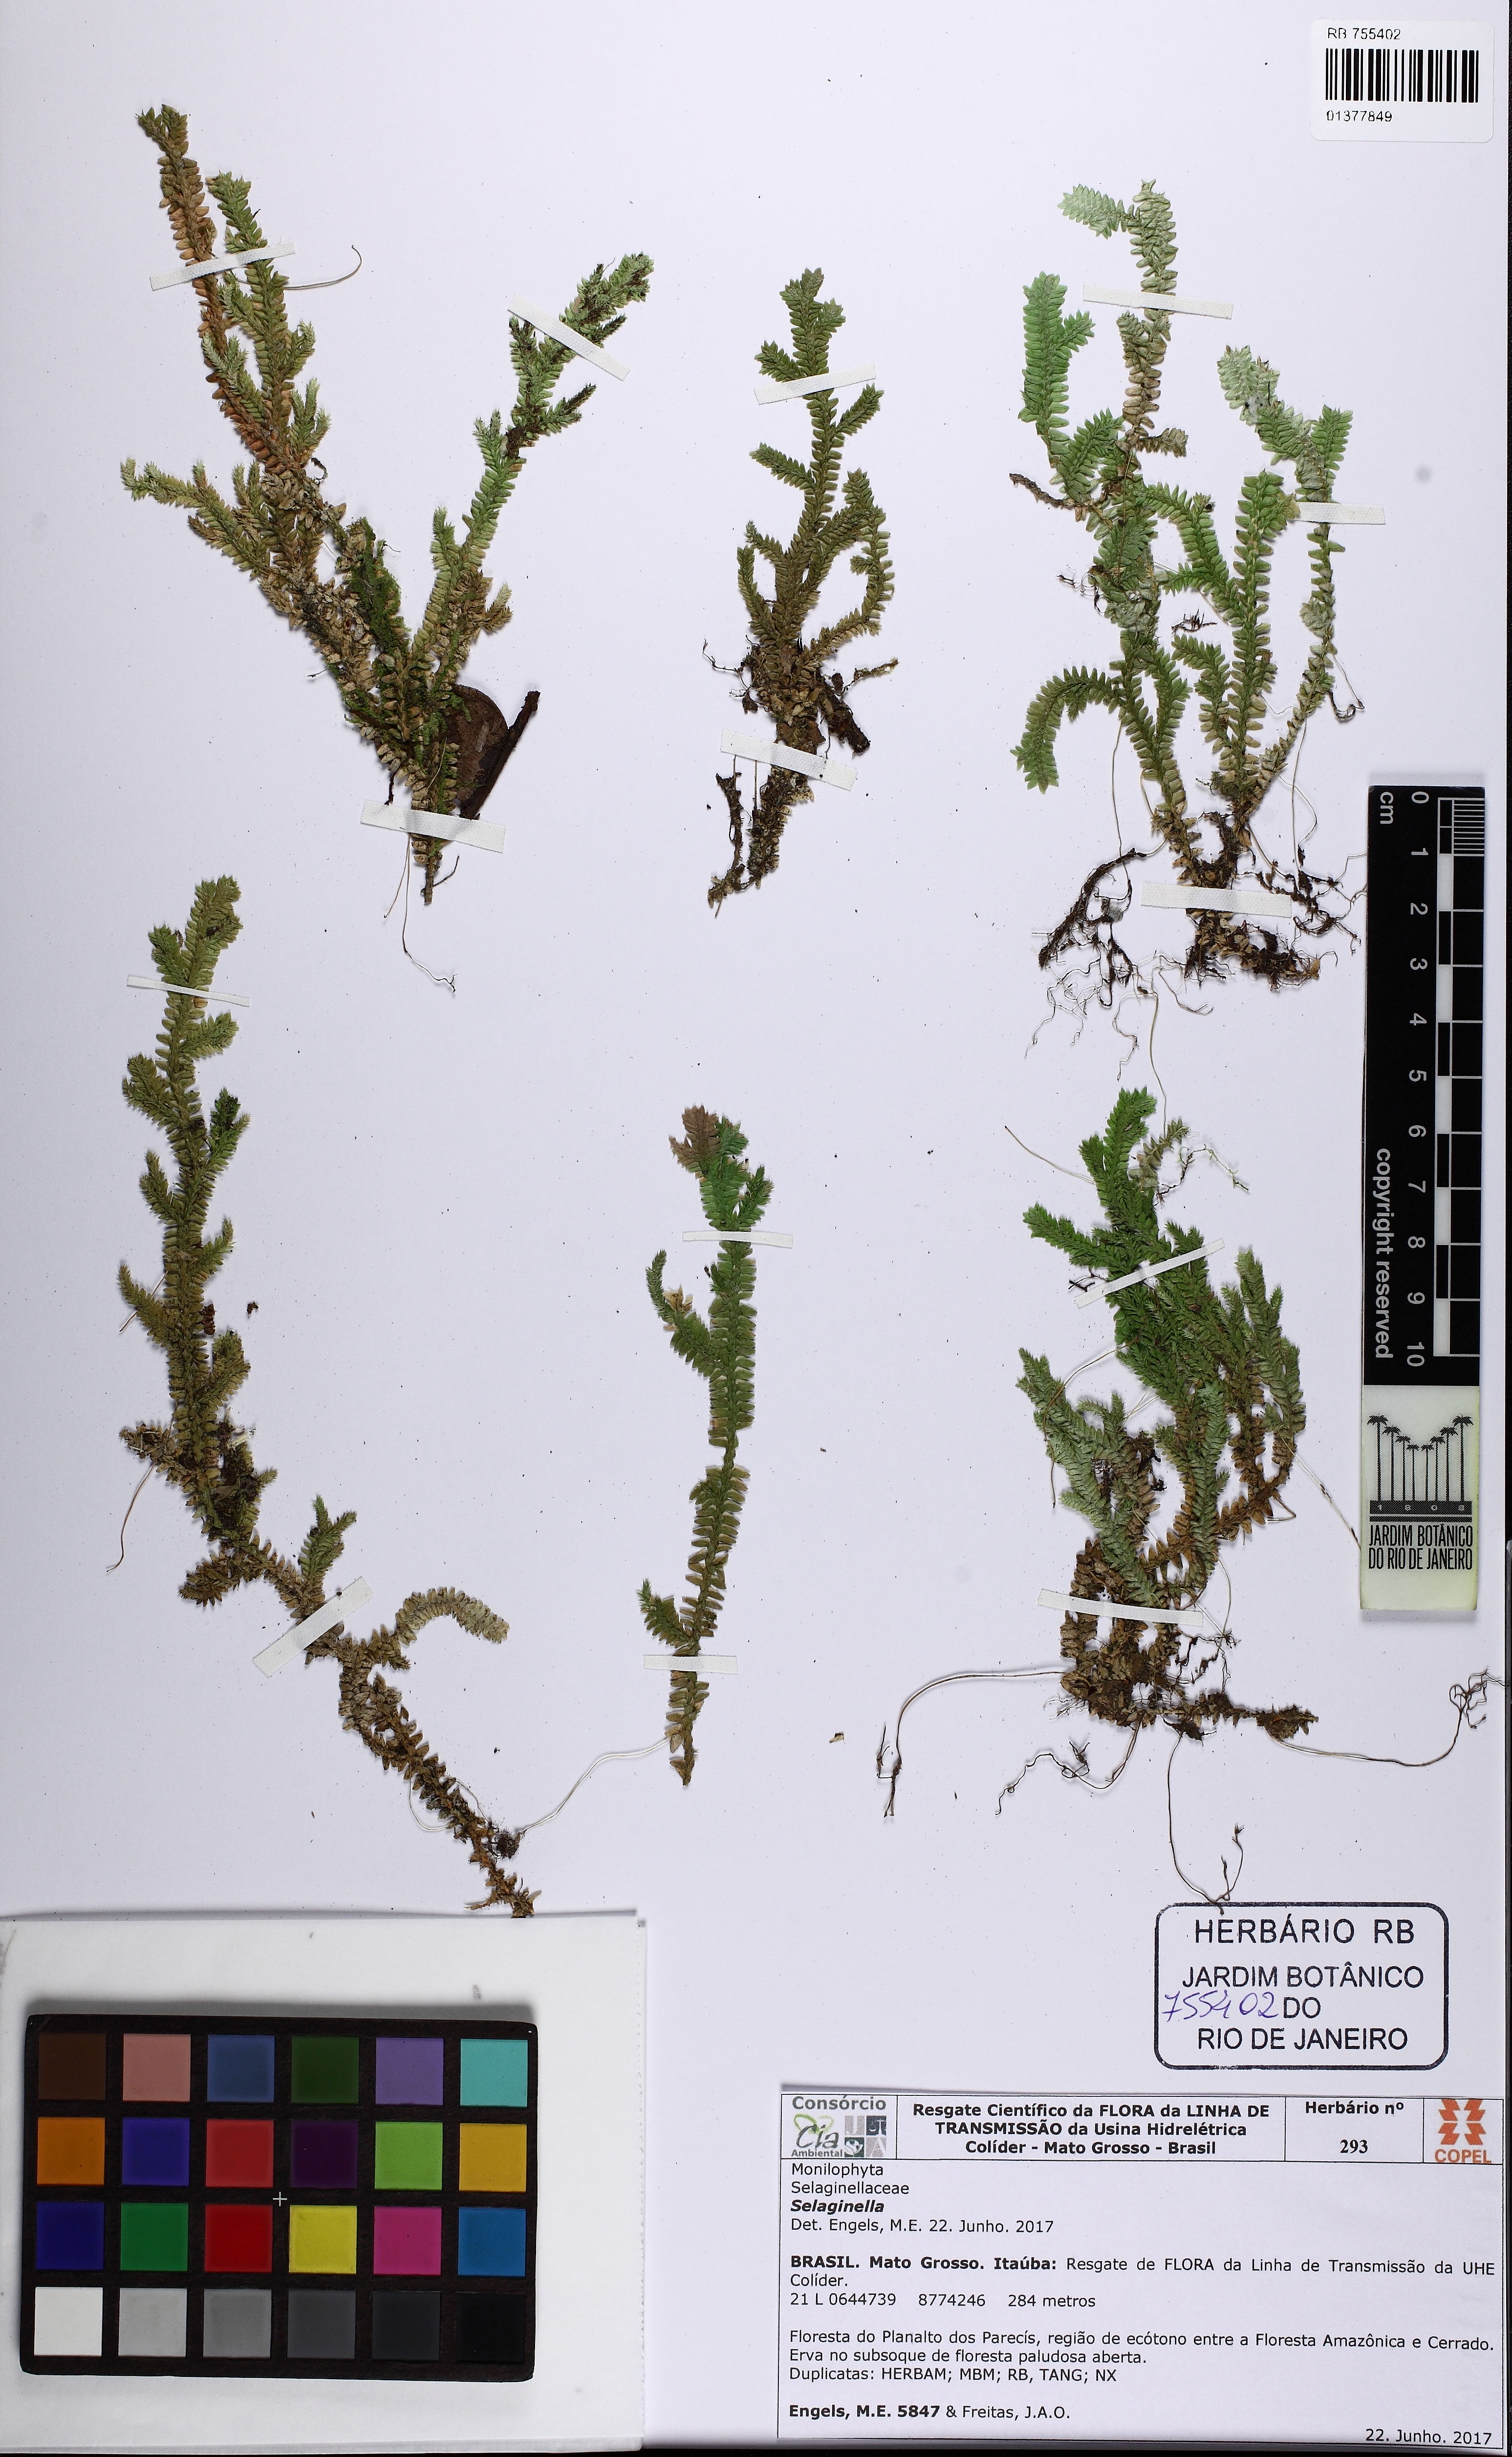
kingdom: Plantae
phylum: Tracheophyta
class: Lycopodiopsida
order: Selaginellales
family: Selaginellaceae
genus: Selaginella
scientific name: Selaginella
